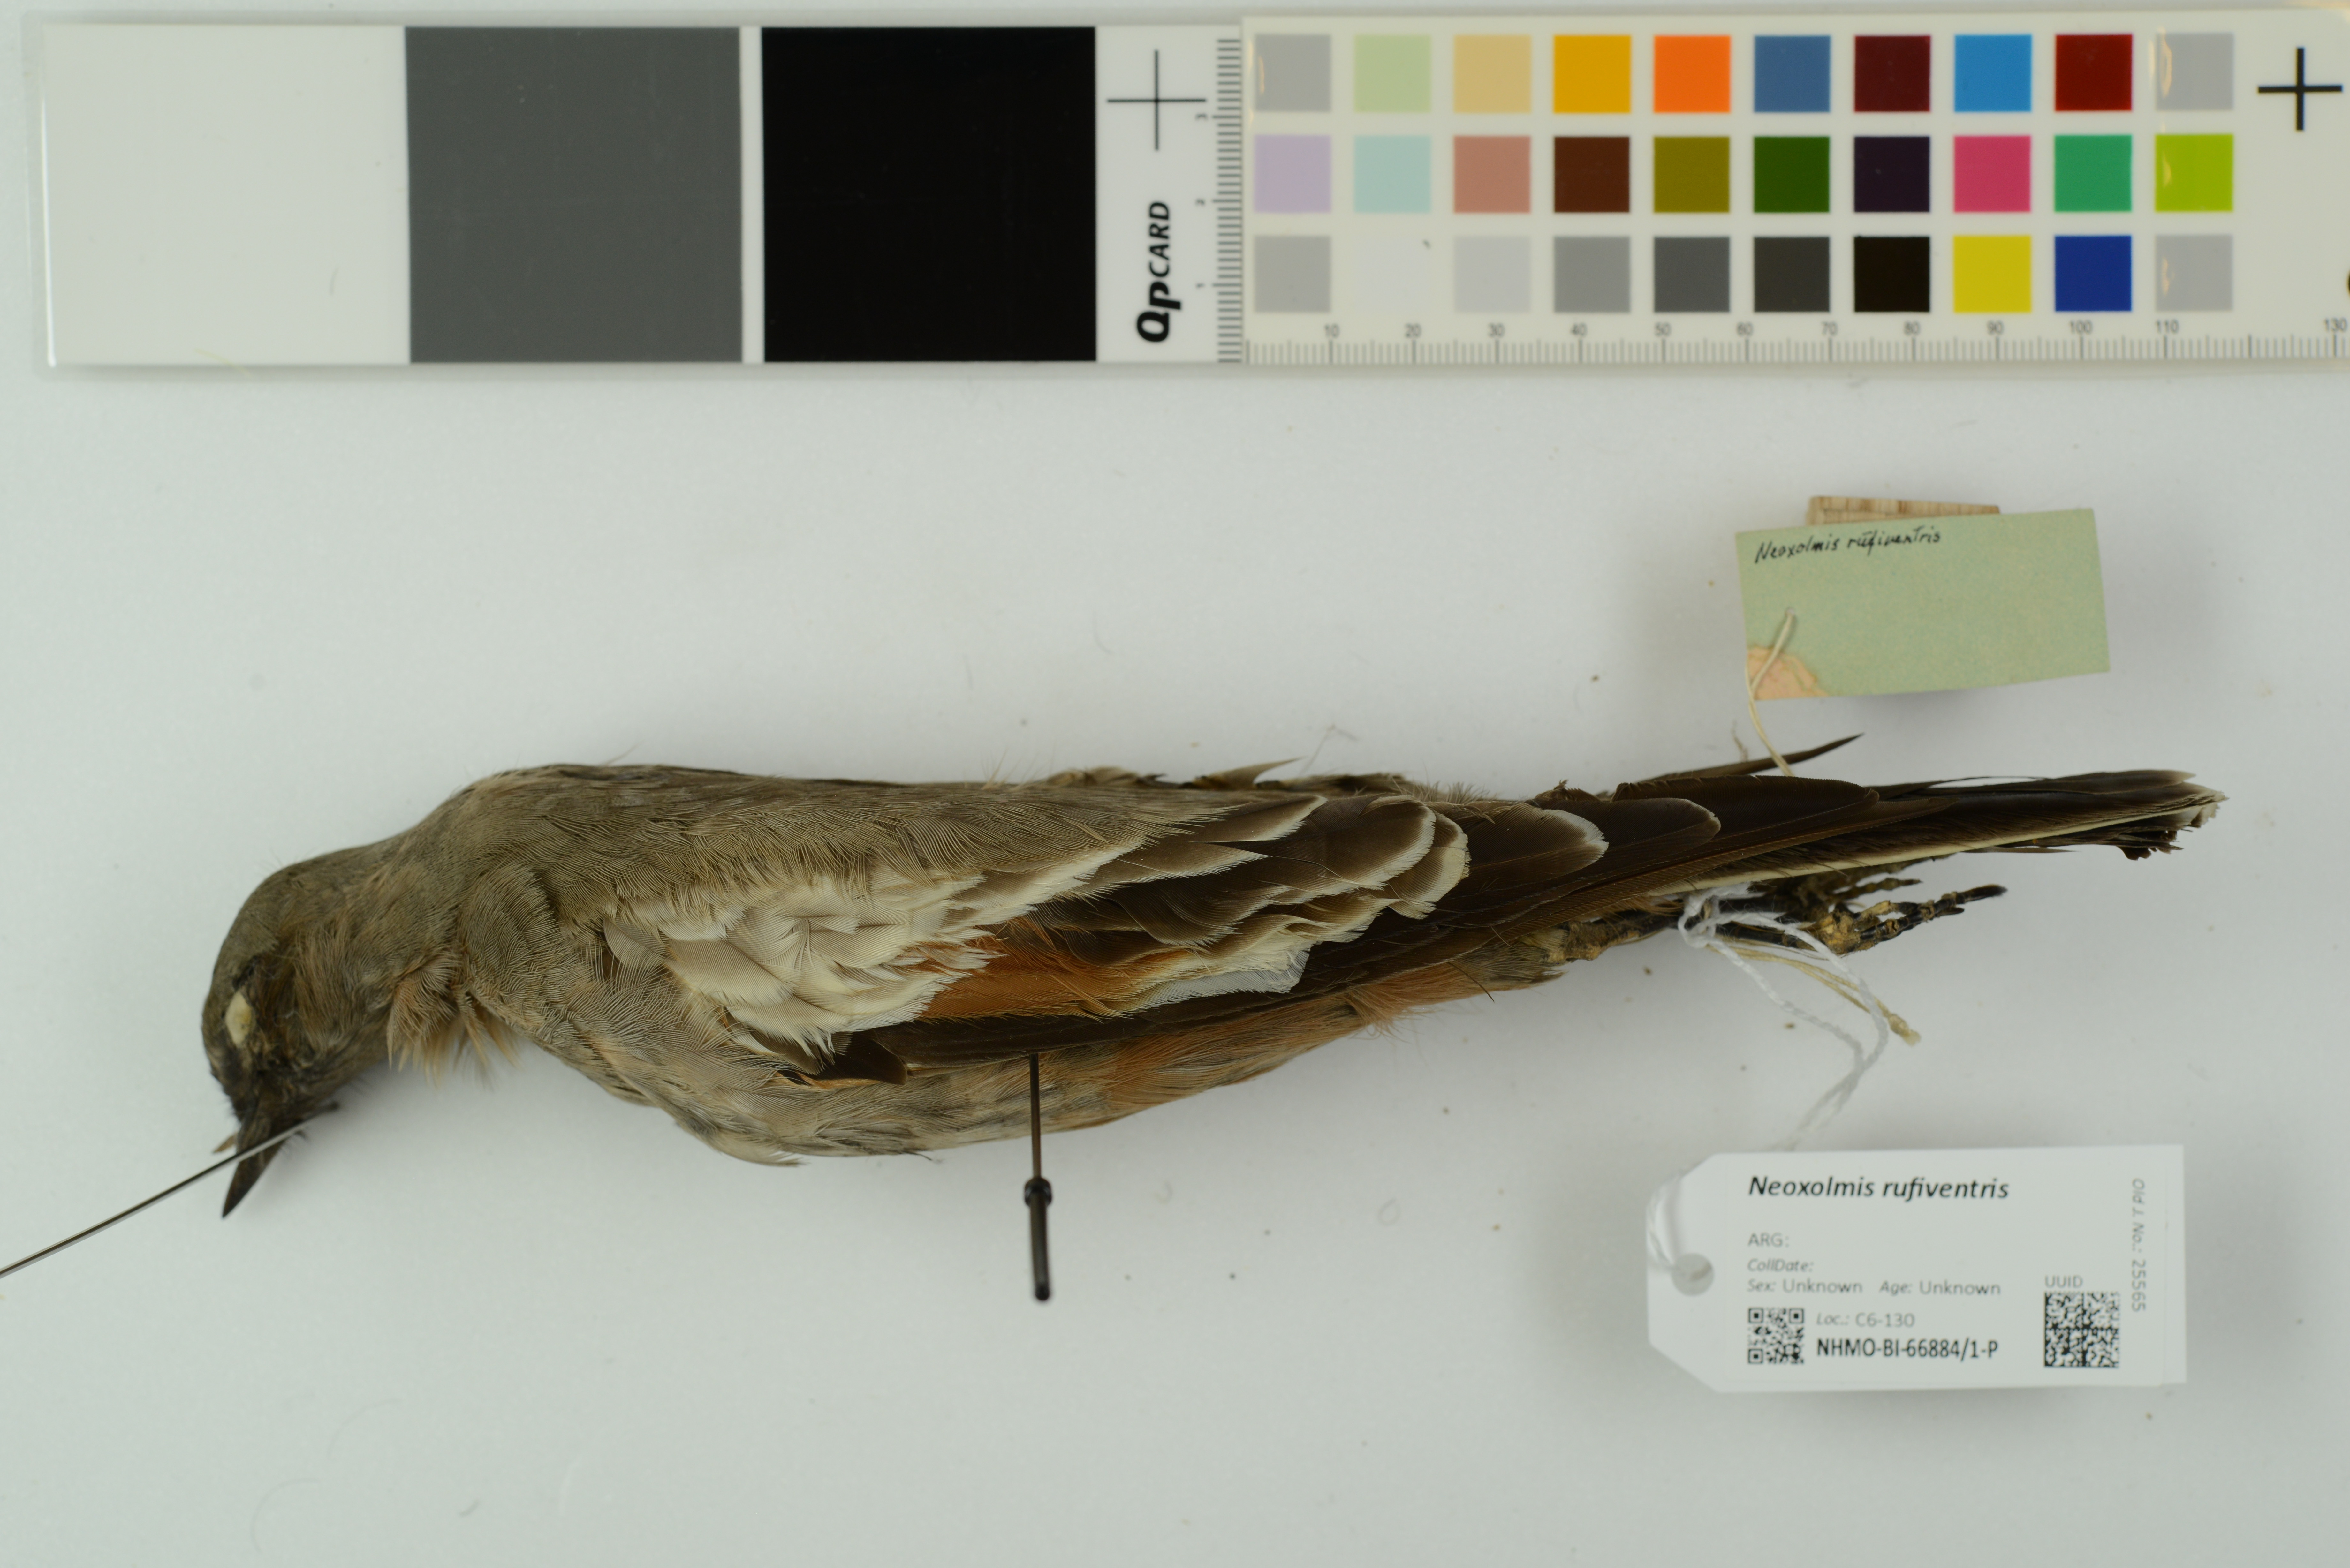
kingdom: Animalia
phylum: Chordata
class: Aves
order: Passeriformes
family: Tyrannidae
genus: Neoxolmis
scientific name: Neoxolmis rufiventris
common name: Chocolate-vented tyrant
